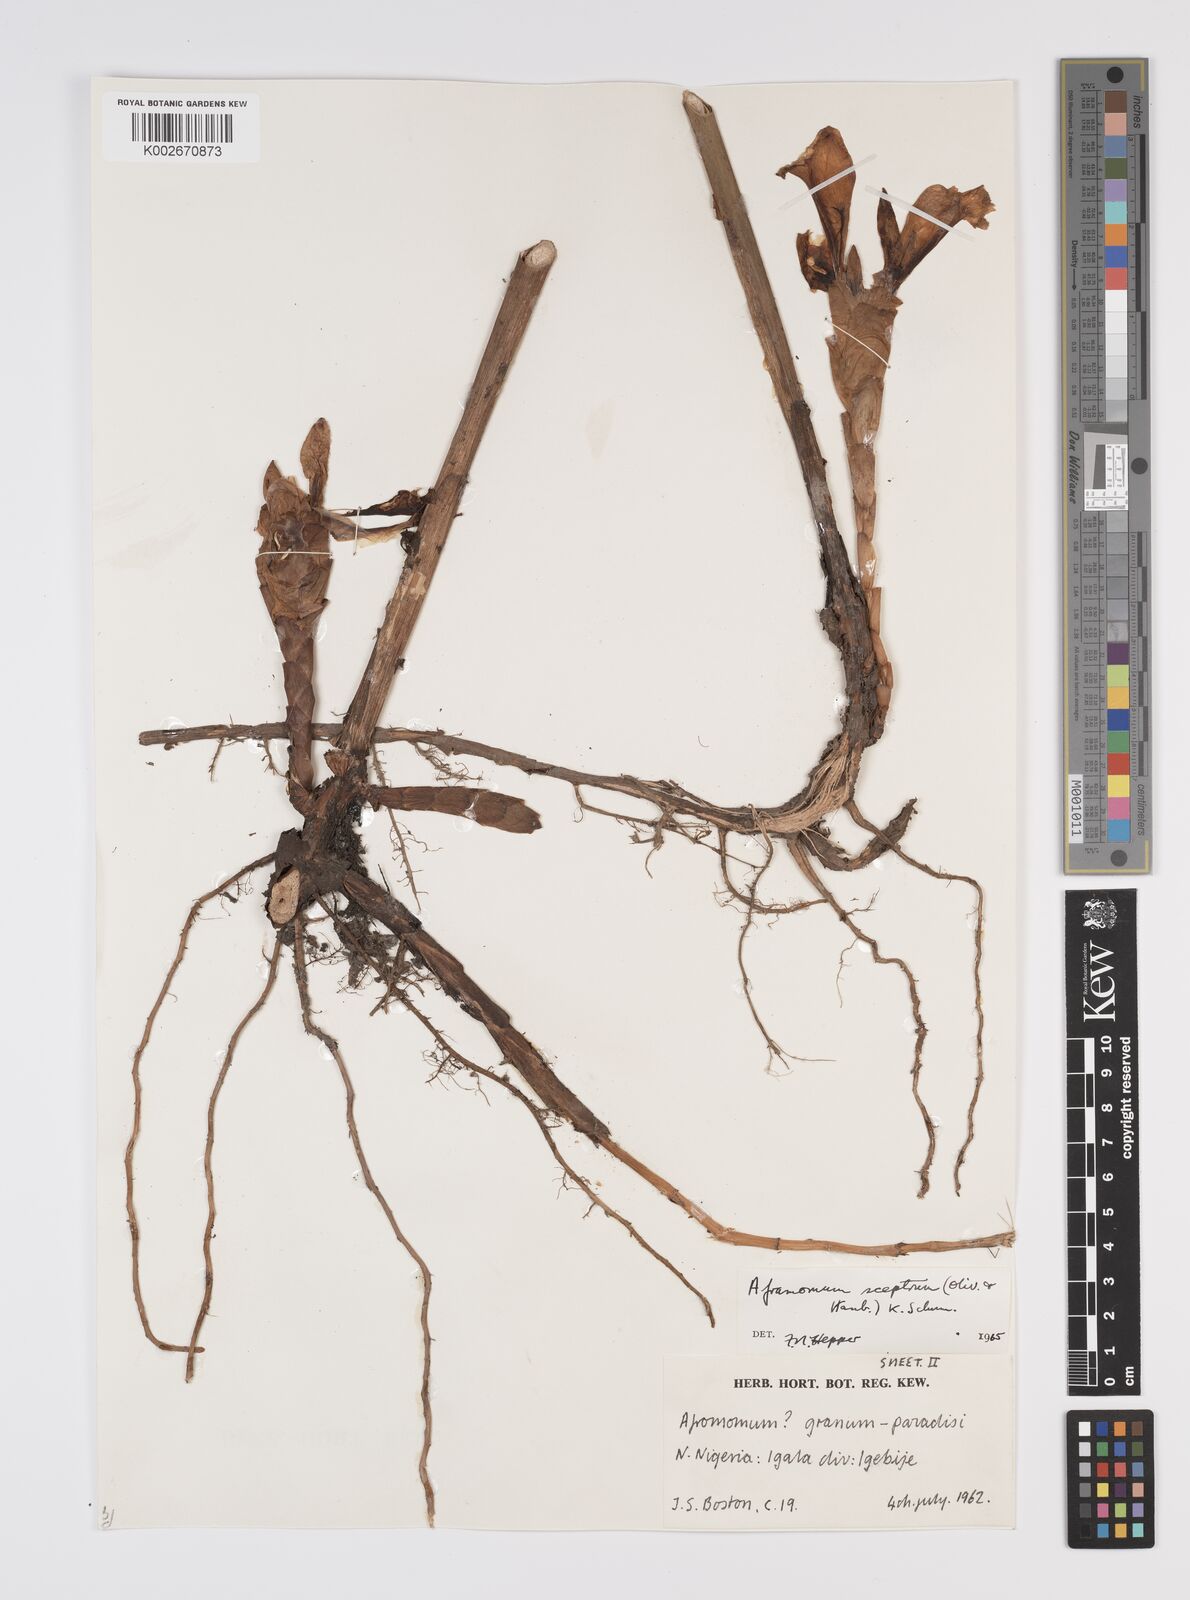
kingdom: Plantae
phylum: Tracheophyta
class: Liliopsida
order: Zingiberales
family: Zingiberaceae
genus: Aframomum
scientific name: Aframomum cereum
